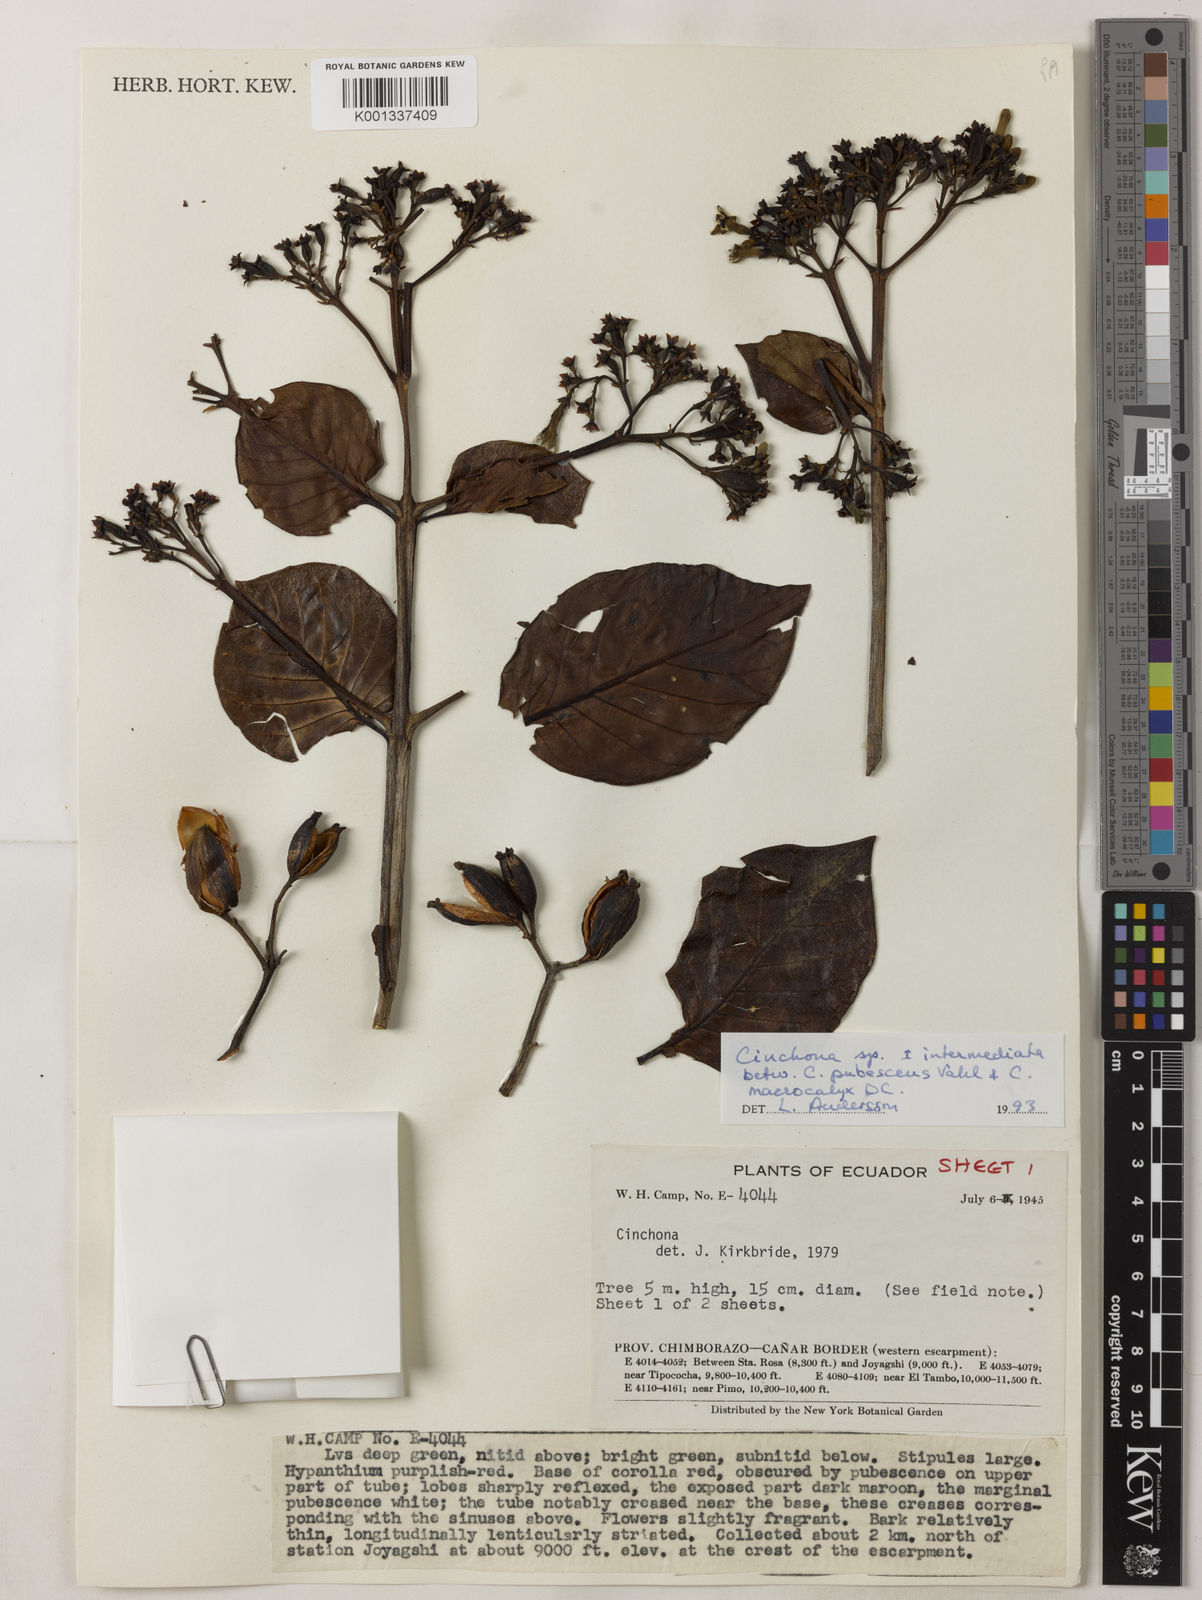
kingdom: Plantae
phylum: Tracheophyta
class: Magnoliopsida
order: Gentianales
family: Rubiaceae
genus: Cinchona
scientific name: Cinchona pubescens
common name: Quinine
